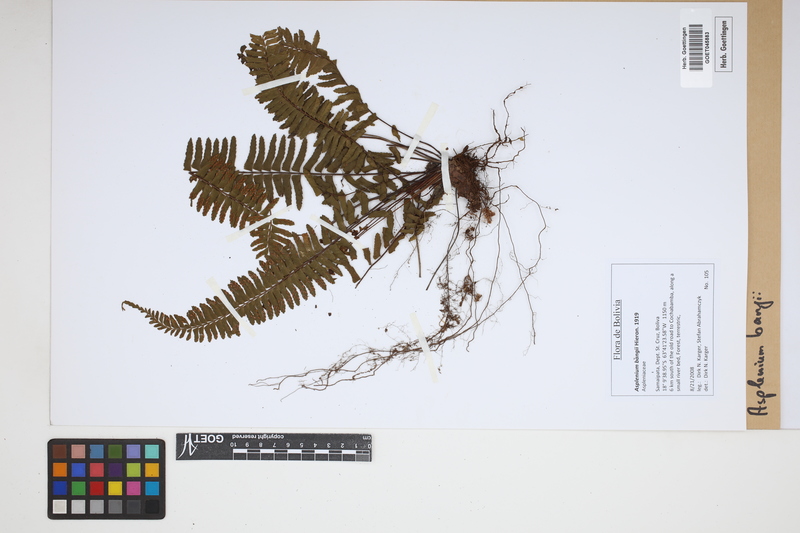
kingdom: Plantae
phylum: Tracheophyta
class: Polypodiopsida
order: Polypodiales
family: Aspleniaceae
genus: Asplenium
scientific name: Asplenium bangii
